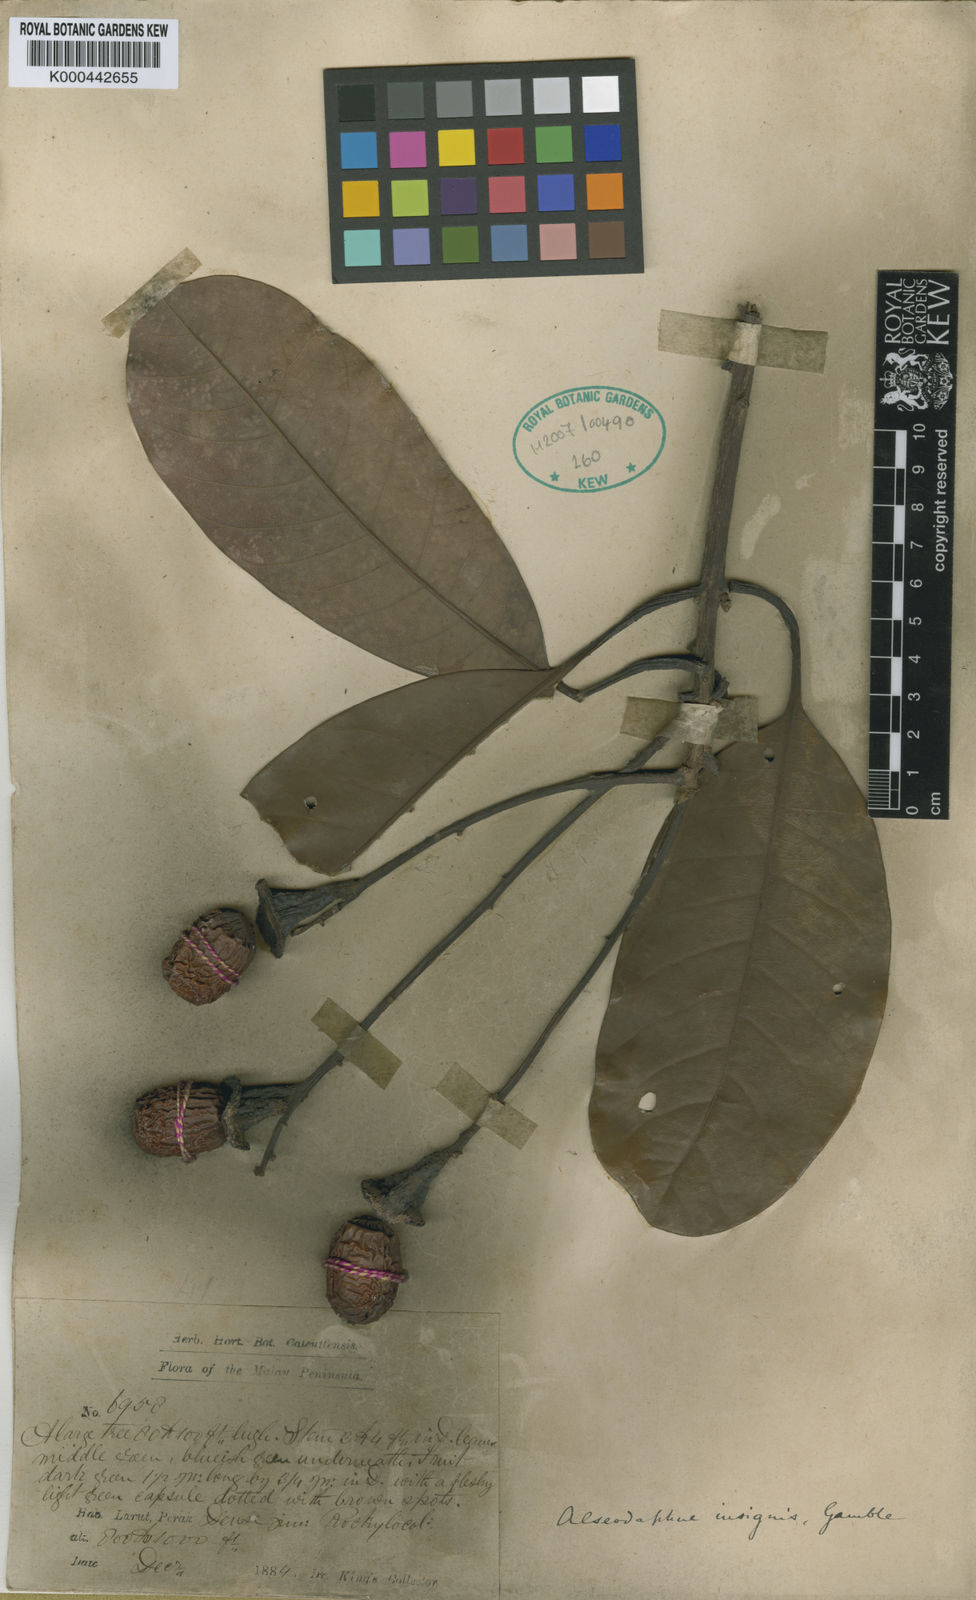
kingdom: Plantae
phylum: Tracheophyta
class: Magnoliopsida
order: Laurales
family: Lauraceae
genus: Alseodaphne
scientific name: Alseodaphne insignis
